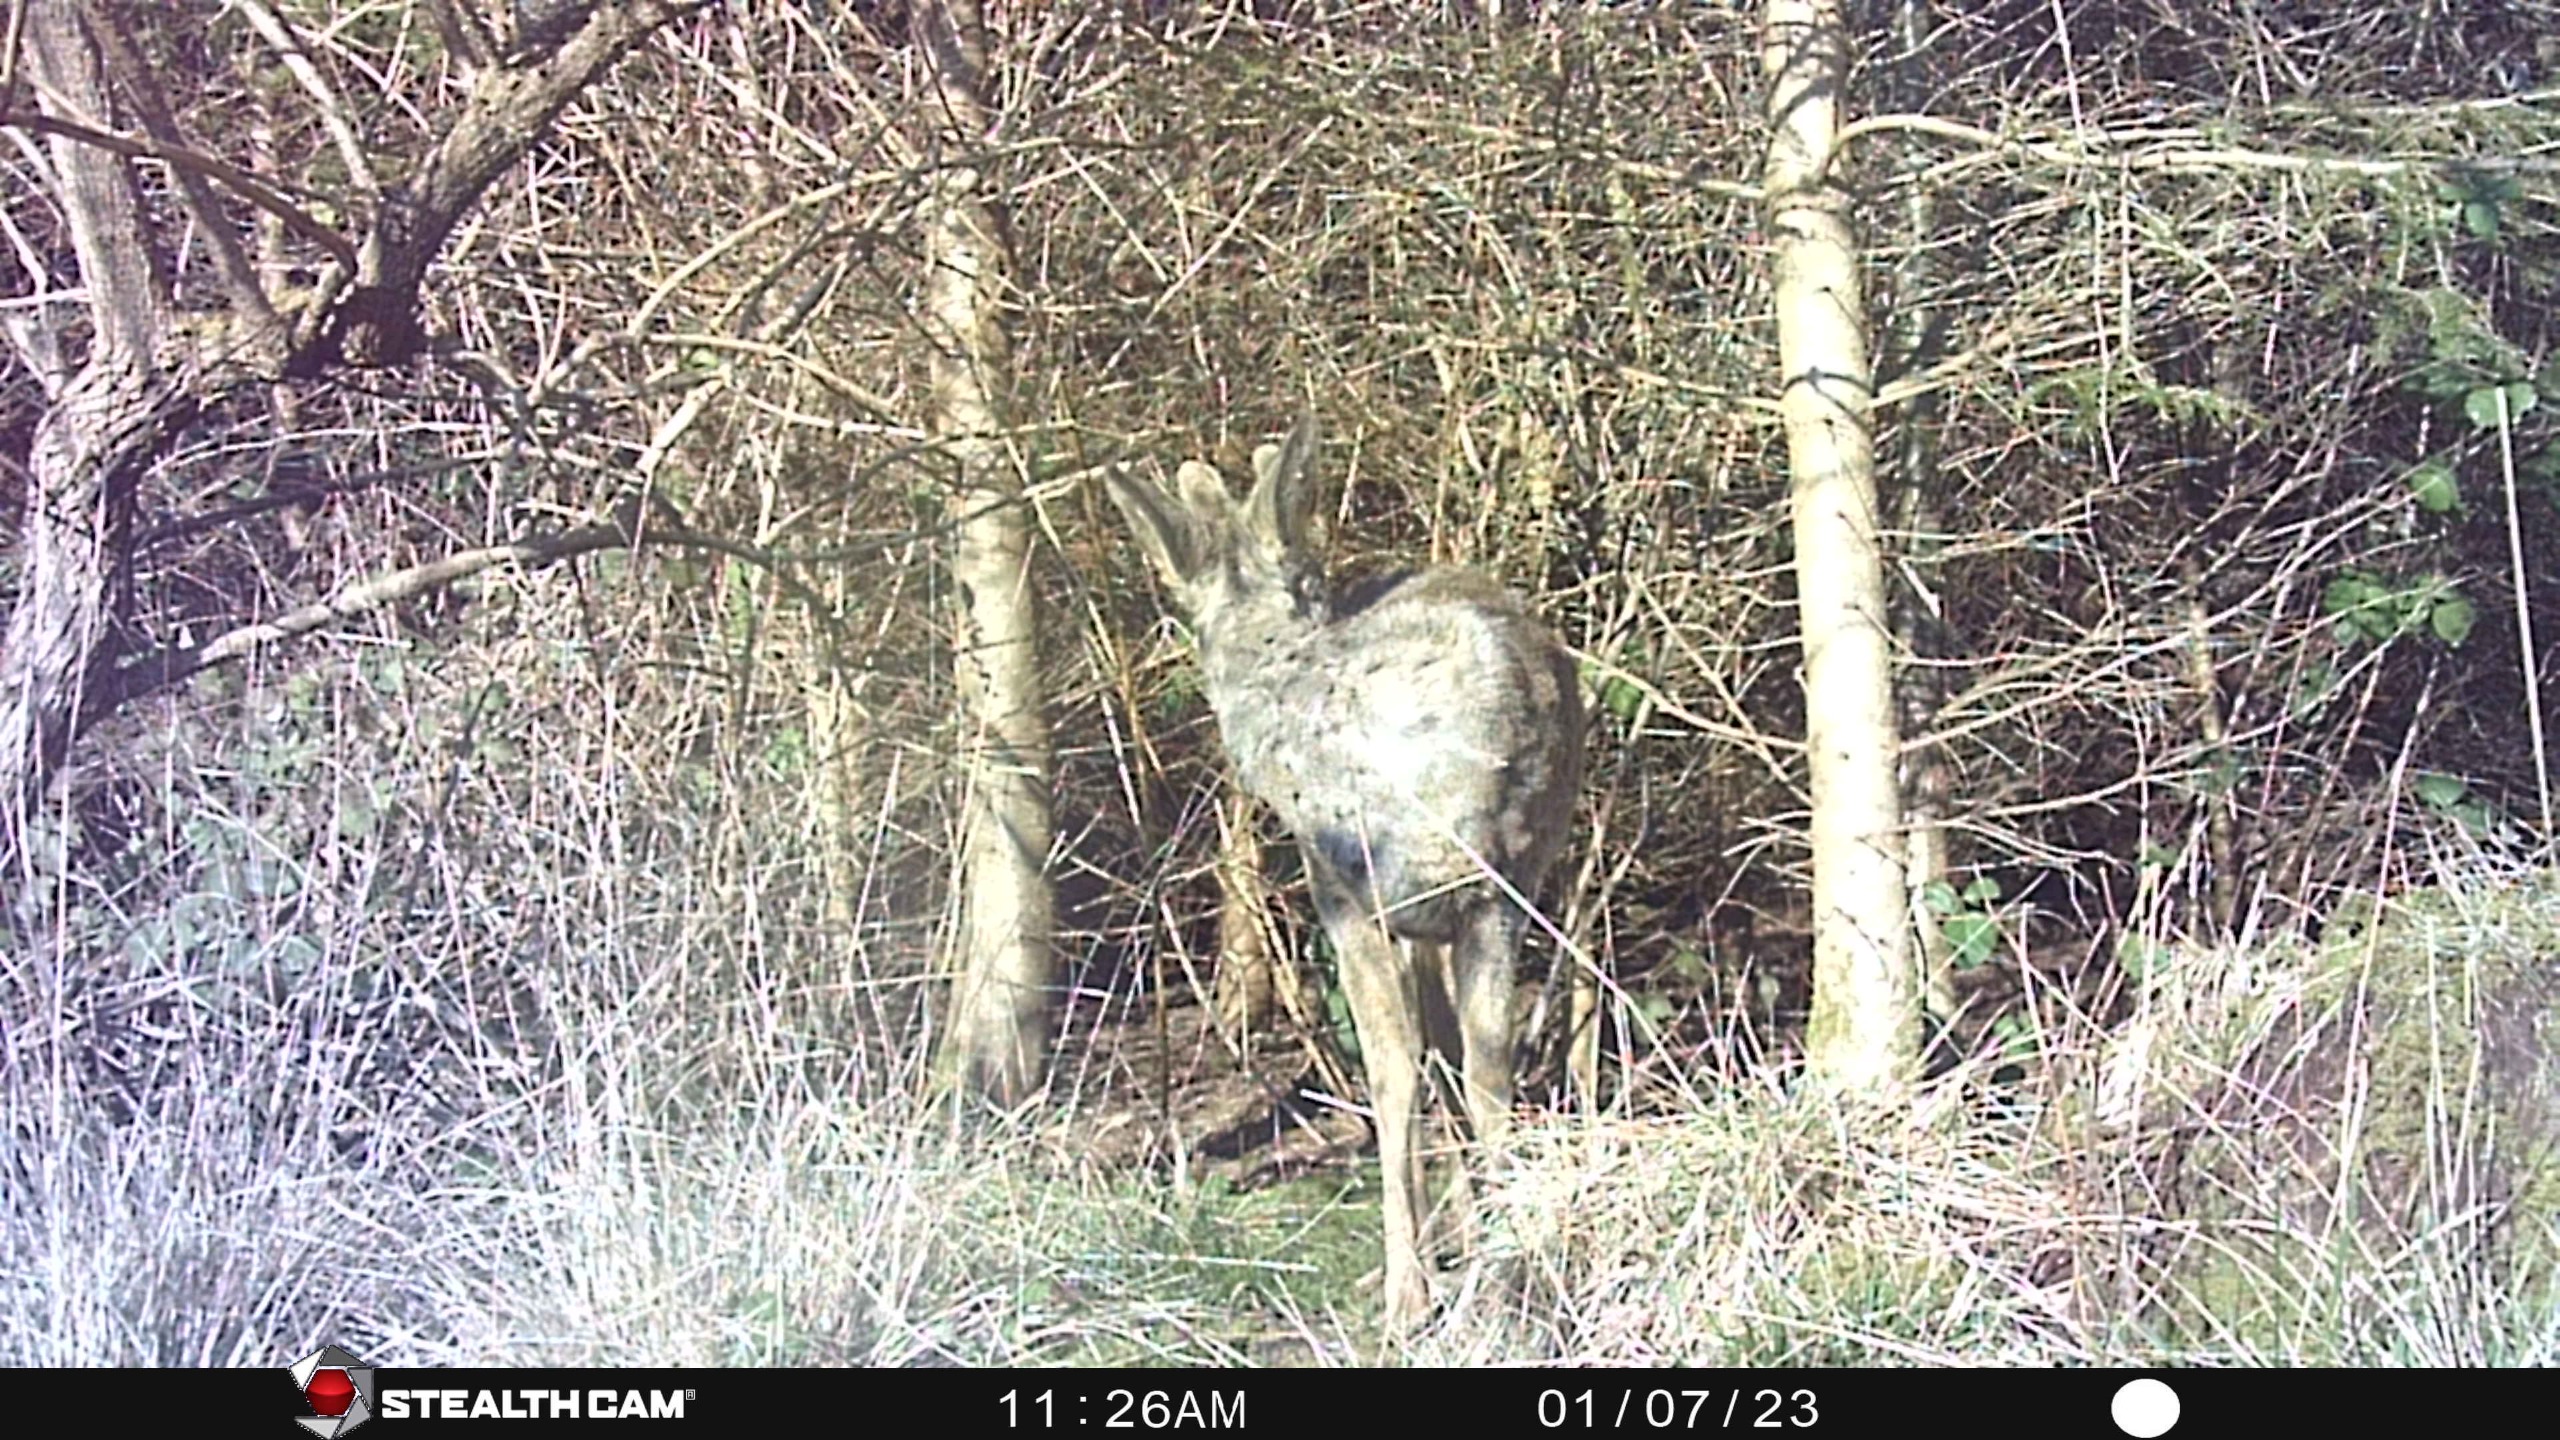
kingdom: Animalia
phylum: Chordata
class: Mammalia
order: Artiodactyla
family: Cervidae
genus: Capreolus
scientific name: Capreolus capreolus
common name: Rådyr
